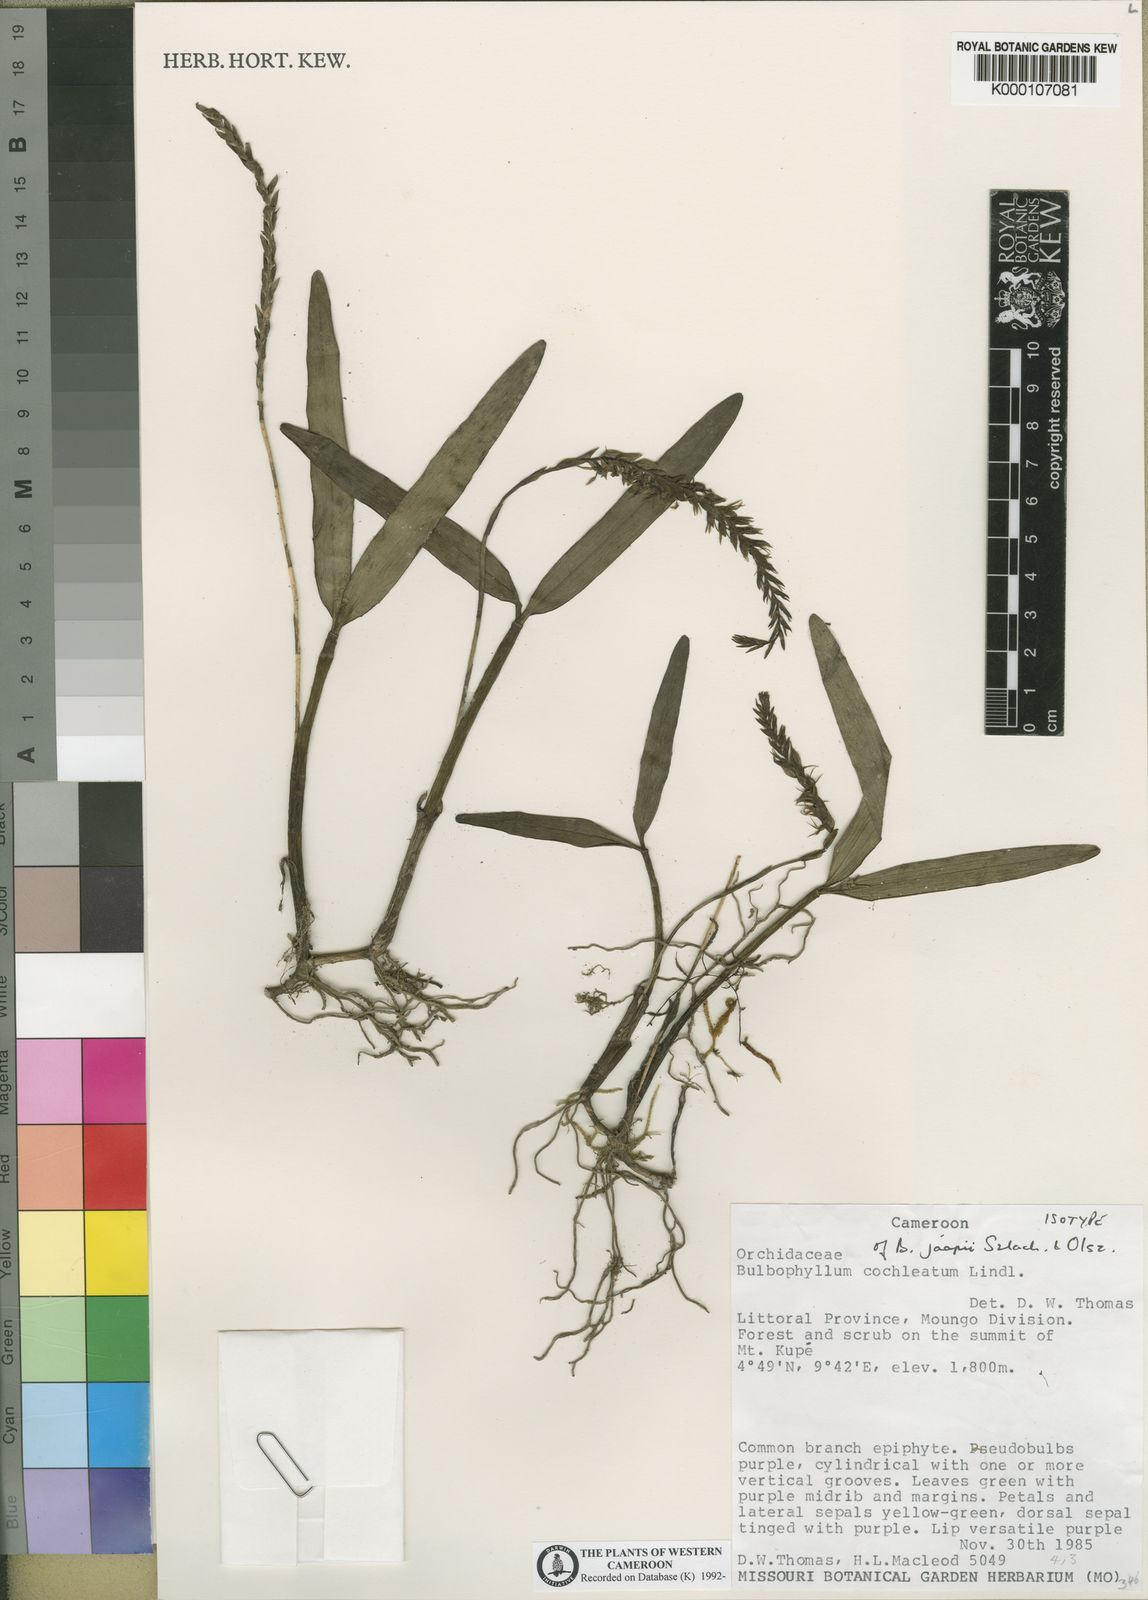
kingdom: Plantae
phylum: Tracheophyta
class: Liliopsida
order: Asparagales
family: Orchidaceae
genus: Bulbophyllum
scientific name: Bulbophyllum jaapii
